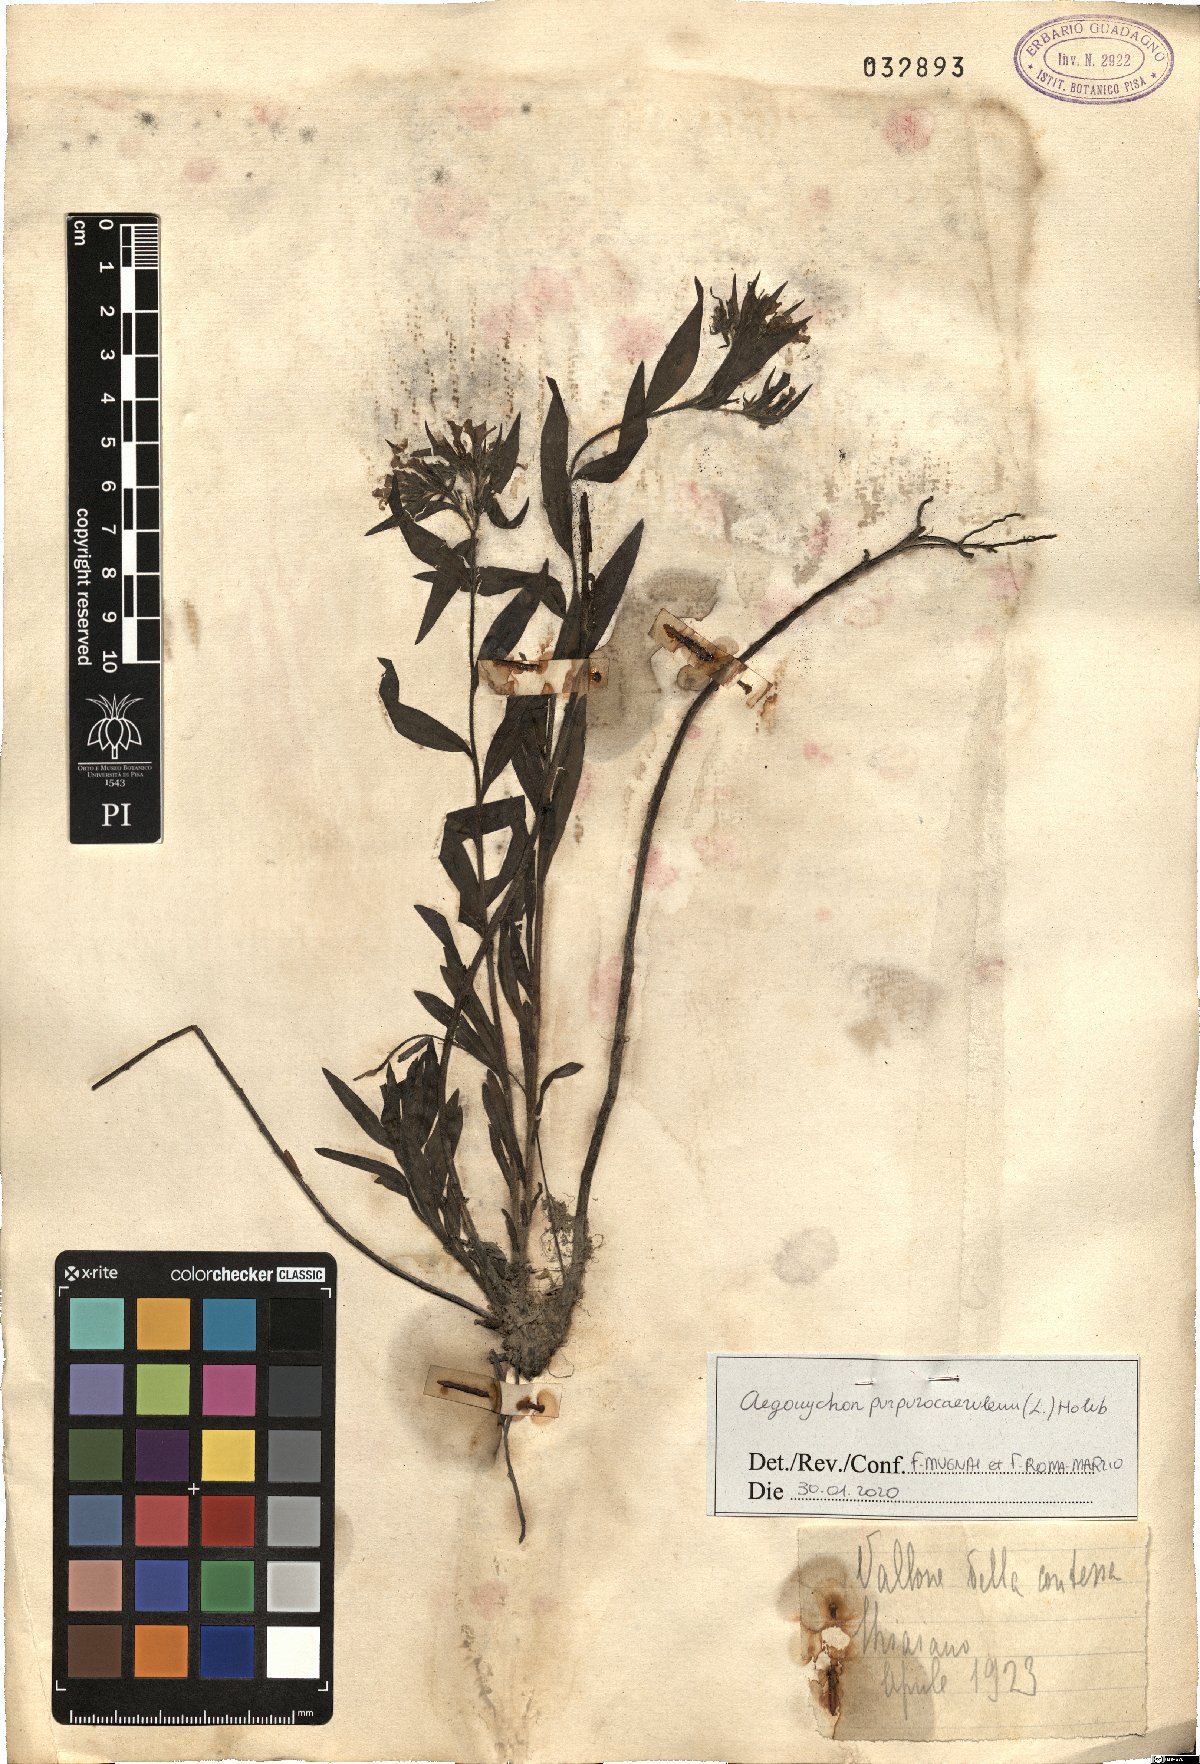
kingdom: Plantae
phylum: Tracheophyta
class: Magnoliopsida
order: Boraginales
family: Boraginaceae
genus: Aegonychon
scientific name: Aegonychon purpurocaeruleum
